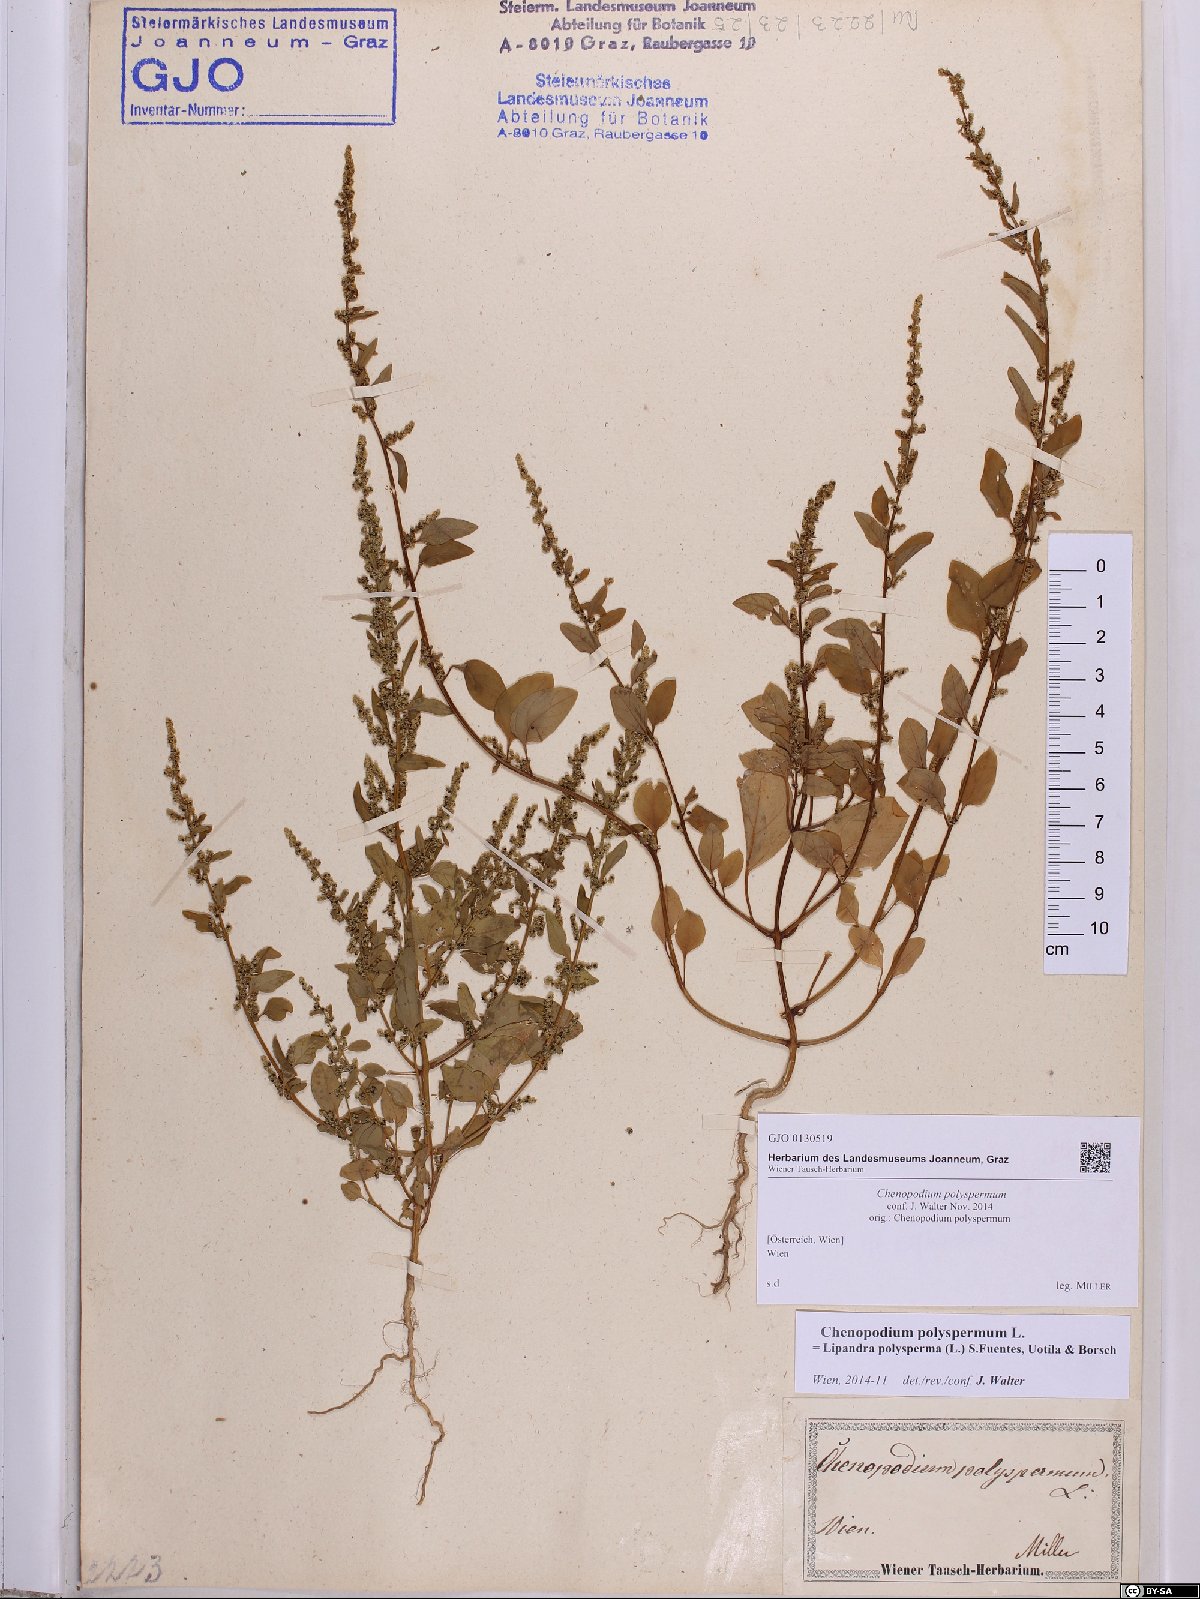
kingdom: Plantae
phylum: Tracheophyta
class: Magnoliopsida
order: Caryophyllales
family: Amaranthaceae
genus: Lipandra
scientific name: Lipandra polysperma
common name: Many-seed goosefoot
